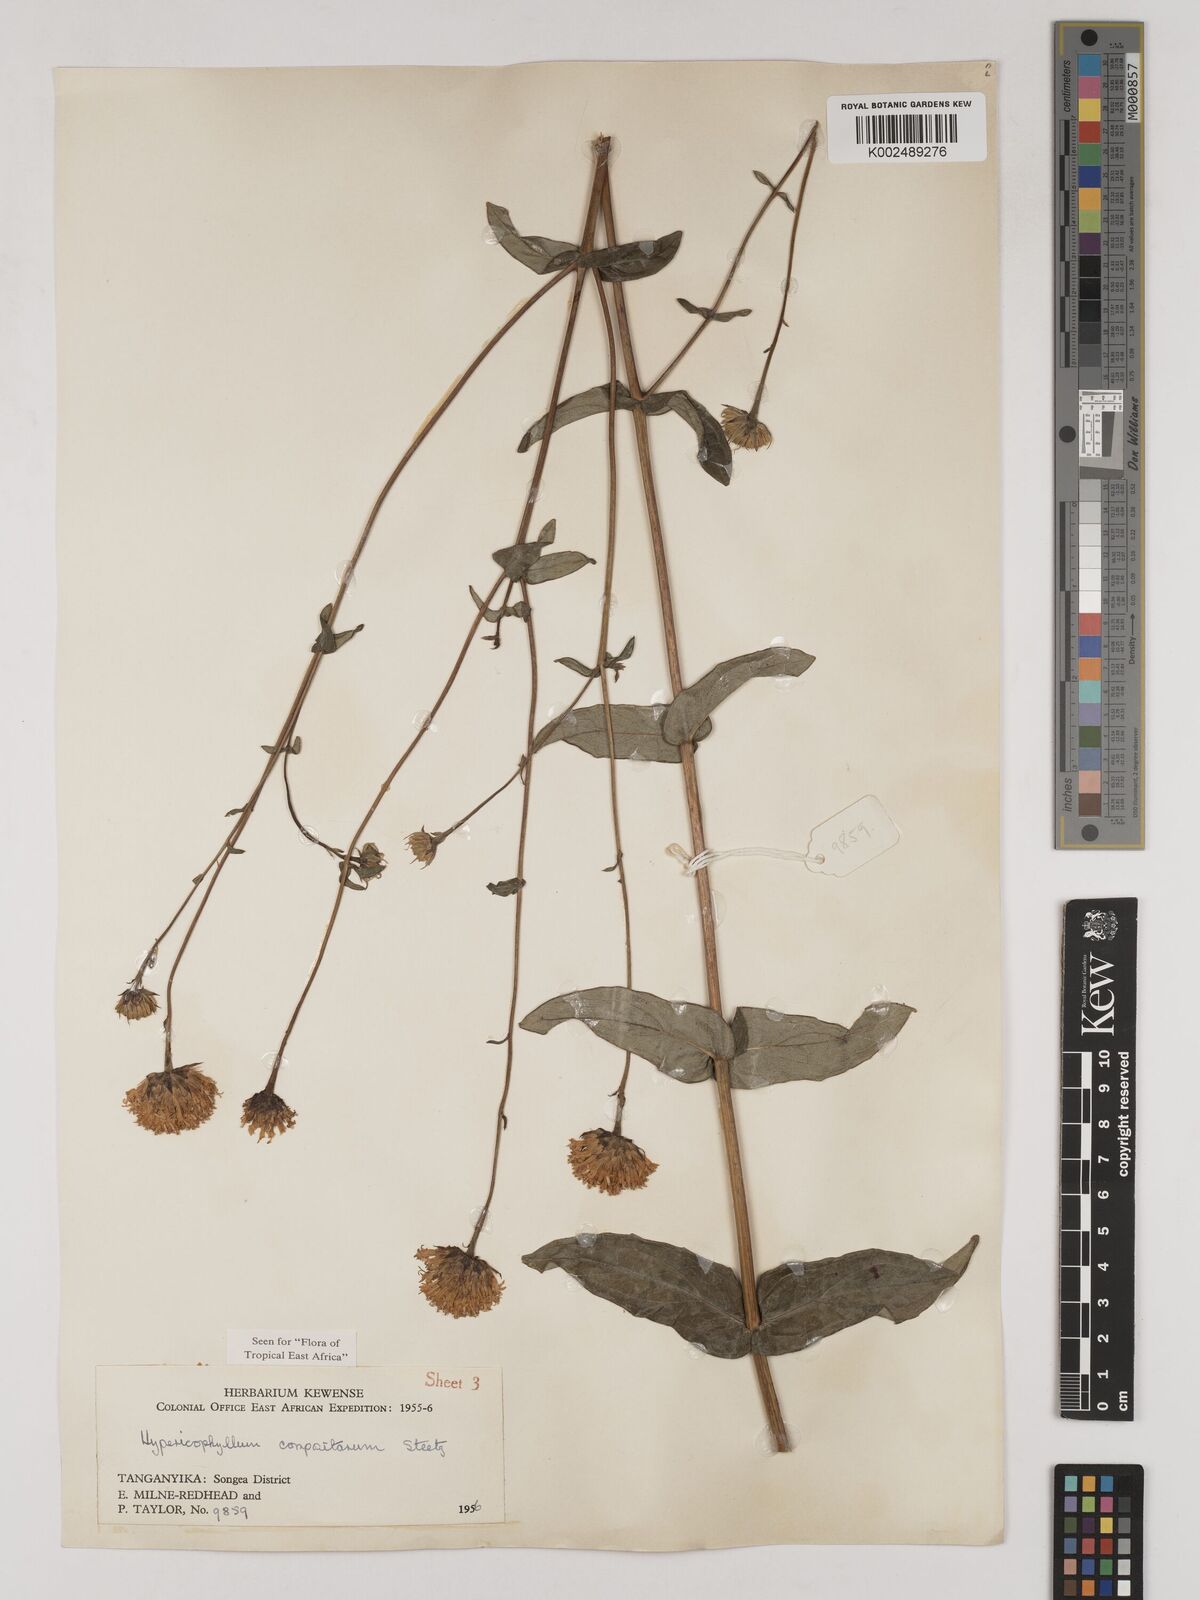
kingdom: Plantae
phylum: Tracheophyta
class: Magnoliopsida
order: Asterales
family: Asteraceae
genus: Hypericophyllum
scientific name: Hypericophyllum compositarum
